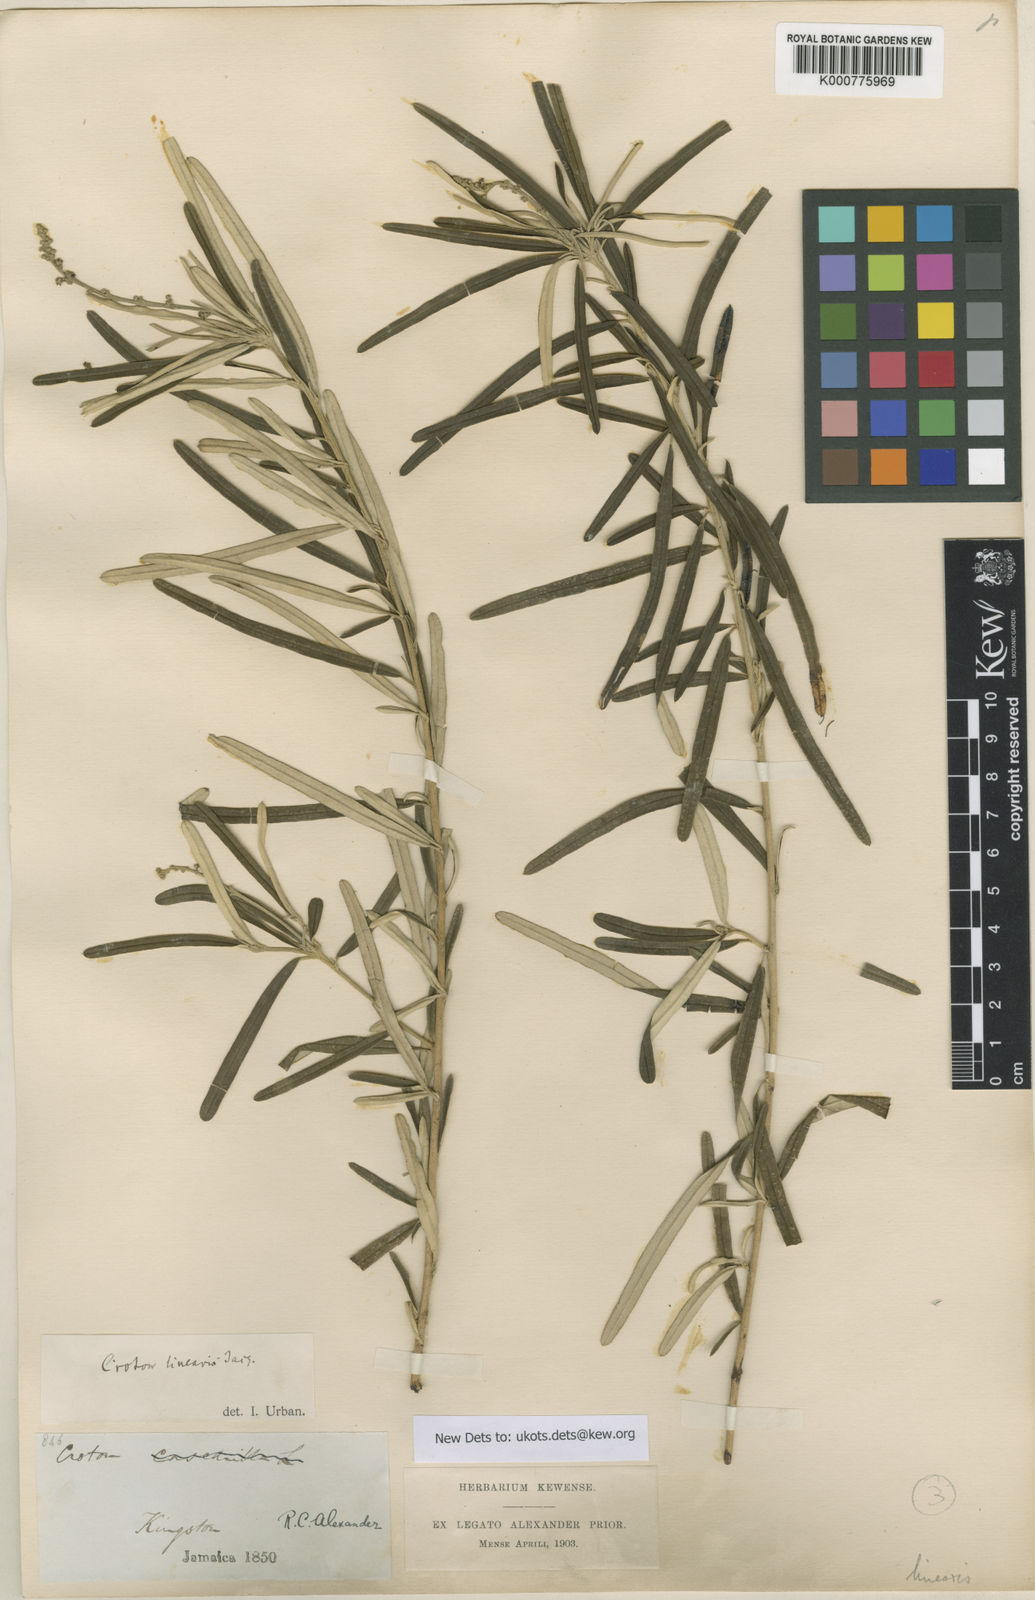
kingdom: Plantae
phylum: Tracheophyta
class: Magnoliopsida
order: Malpighiales
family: Euphorbiaceae
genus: Croton
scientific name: Croton linearis
